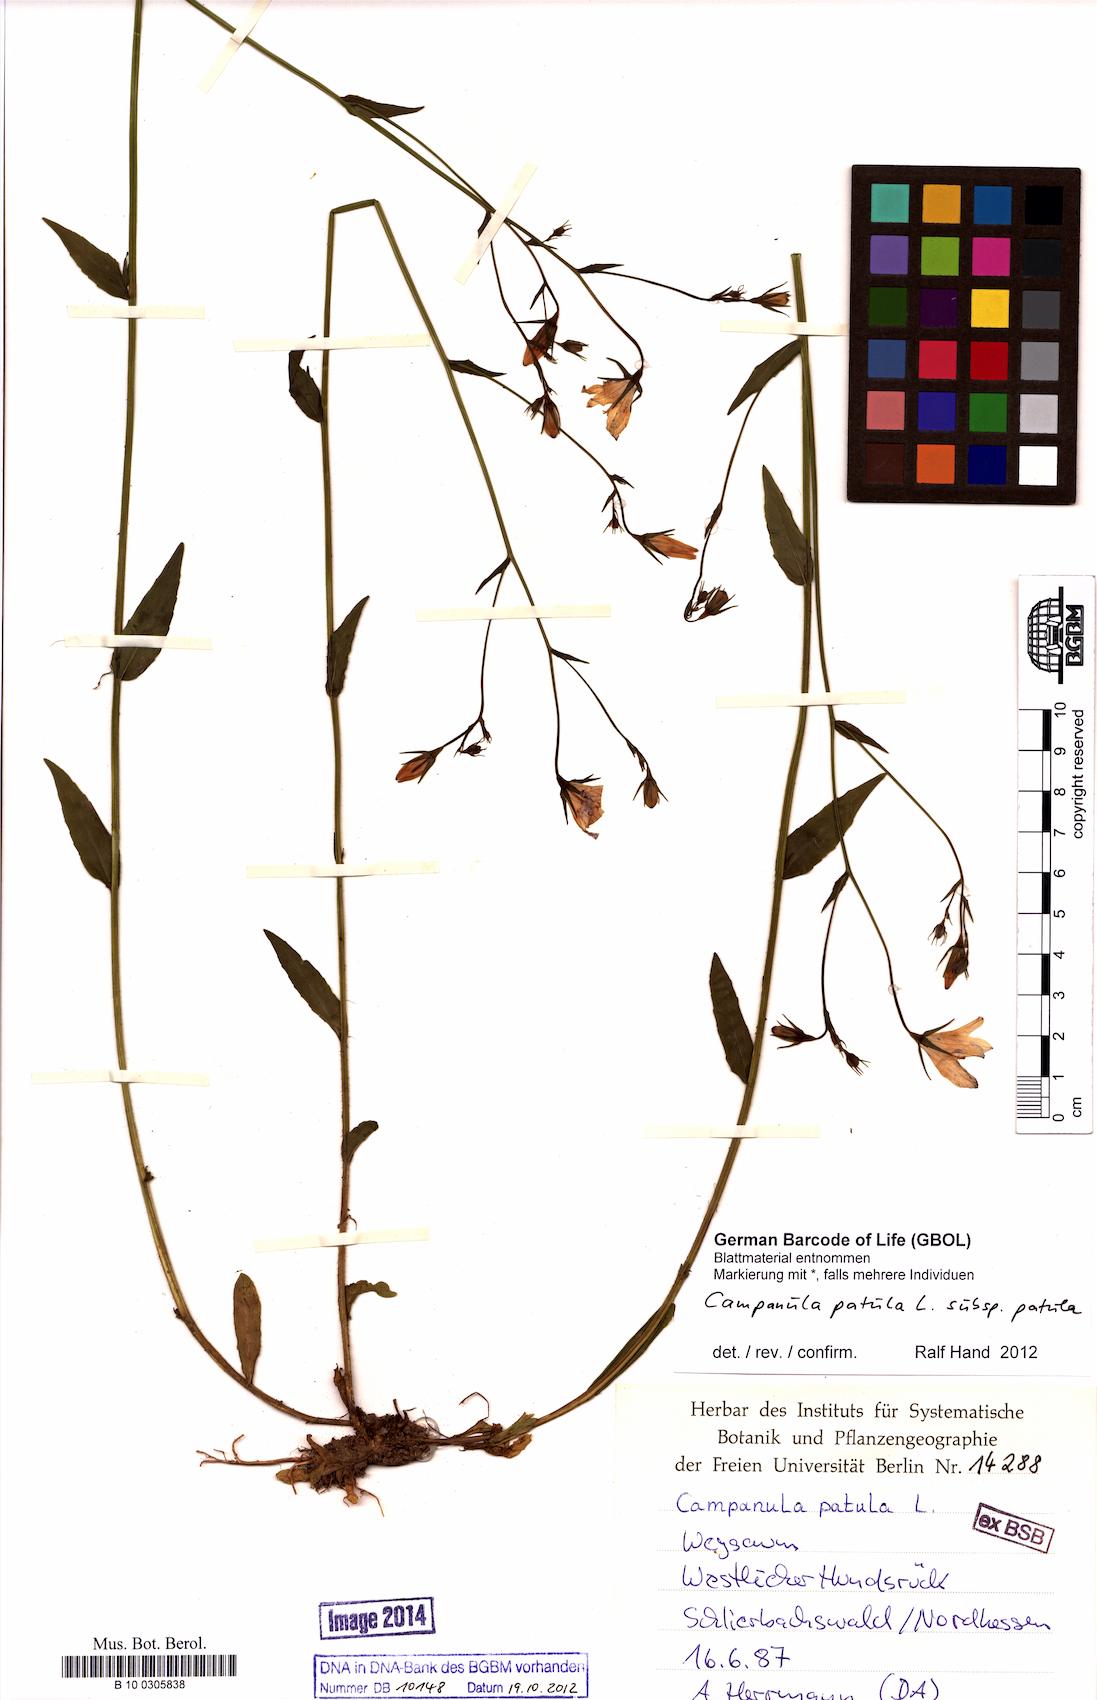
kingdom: Plantae
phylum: Tracheophyta
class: Magnoliopsida
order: Asterales
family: Campanulaceae
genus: Campanula
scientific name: Campanula patula
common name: Spreading bellflower
